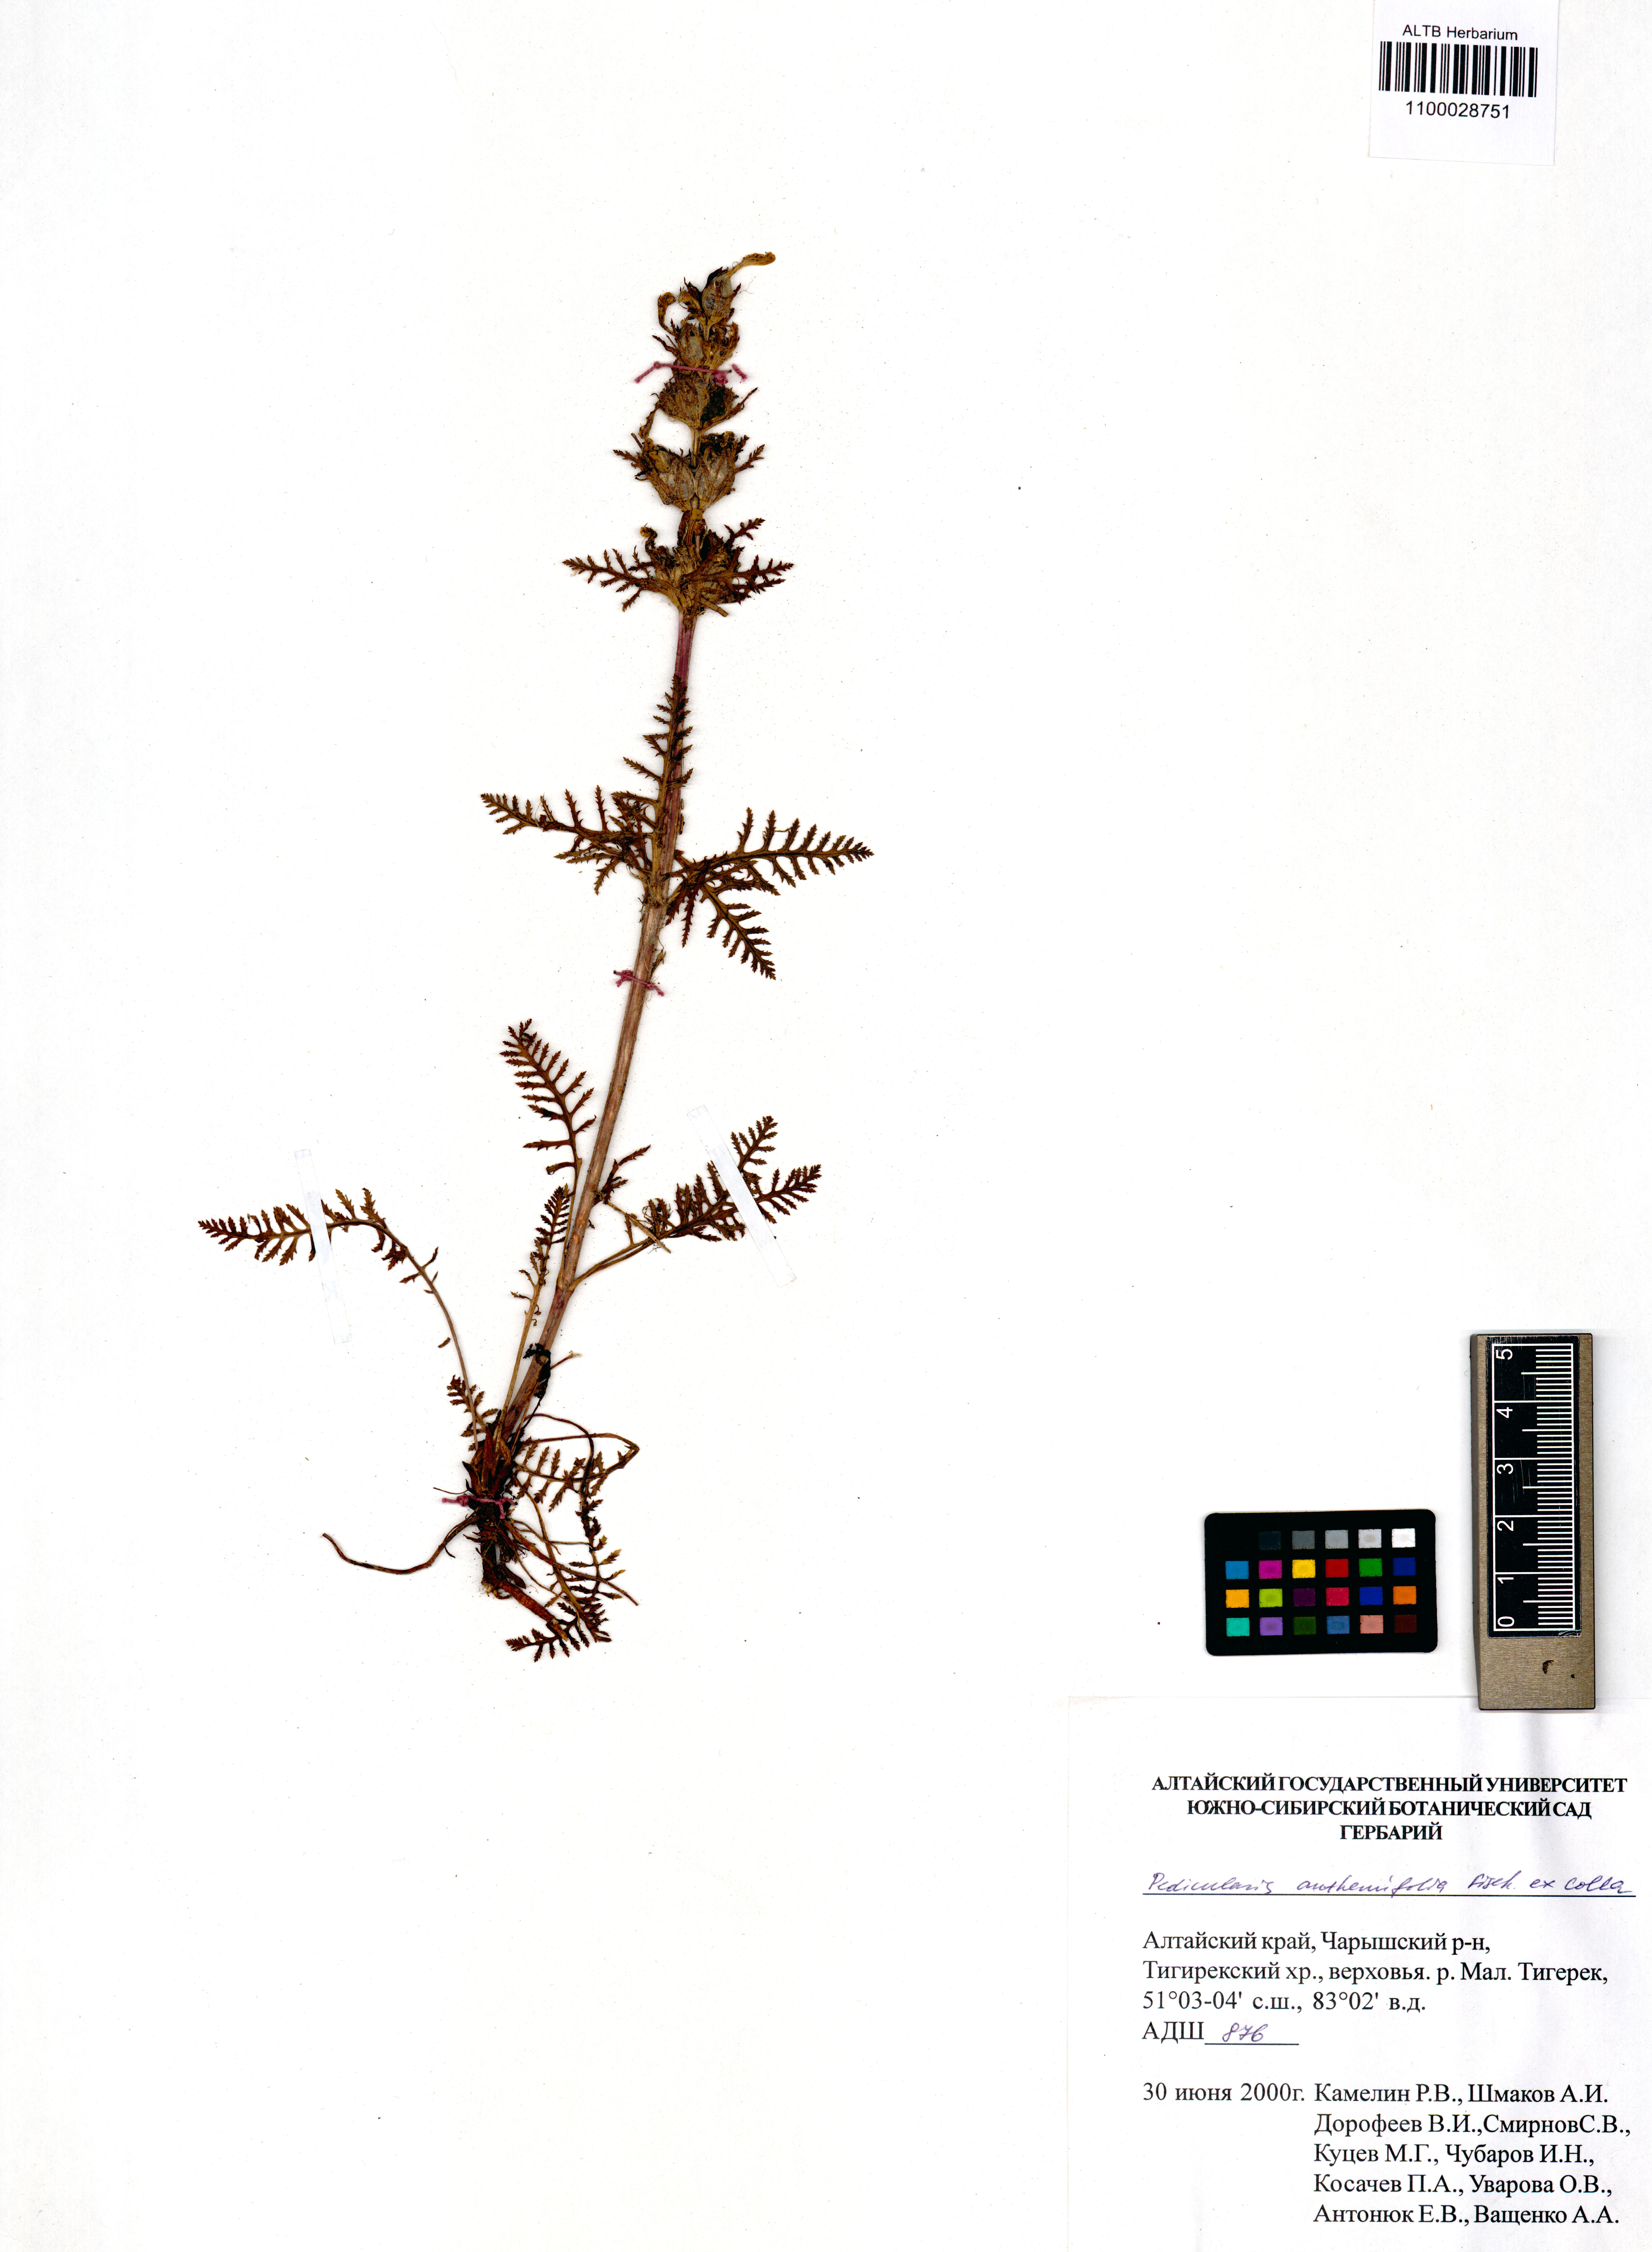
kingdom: Plantae
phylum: Tracheophyta
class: Magnoliopsida
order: Lamiales
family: Orobanchaceae
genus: Pedicularis
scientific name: Pedicularis anthemifolia
